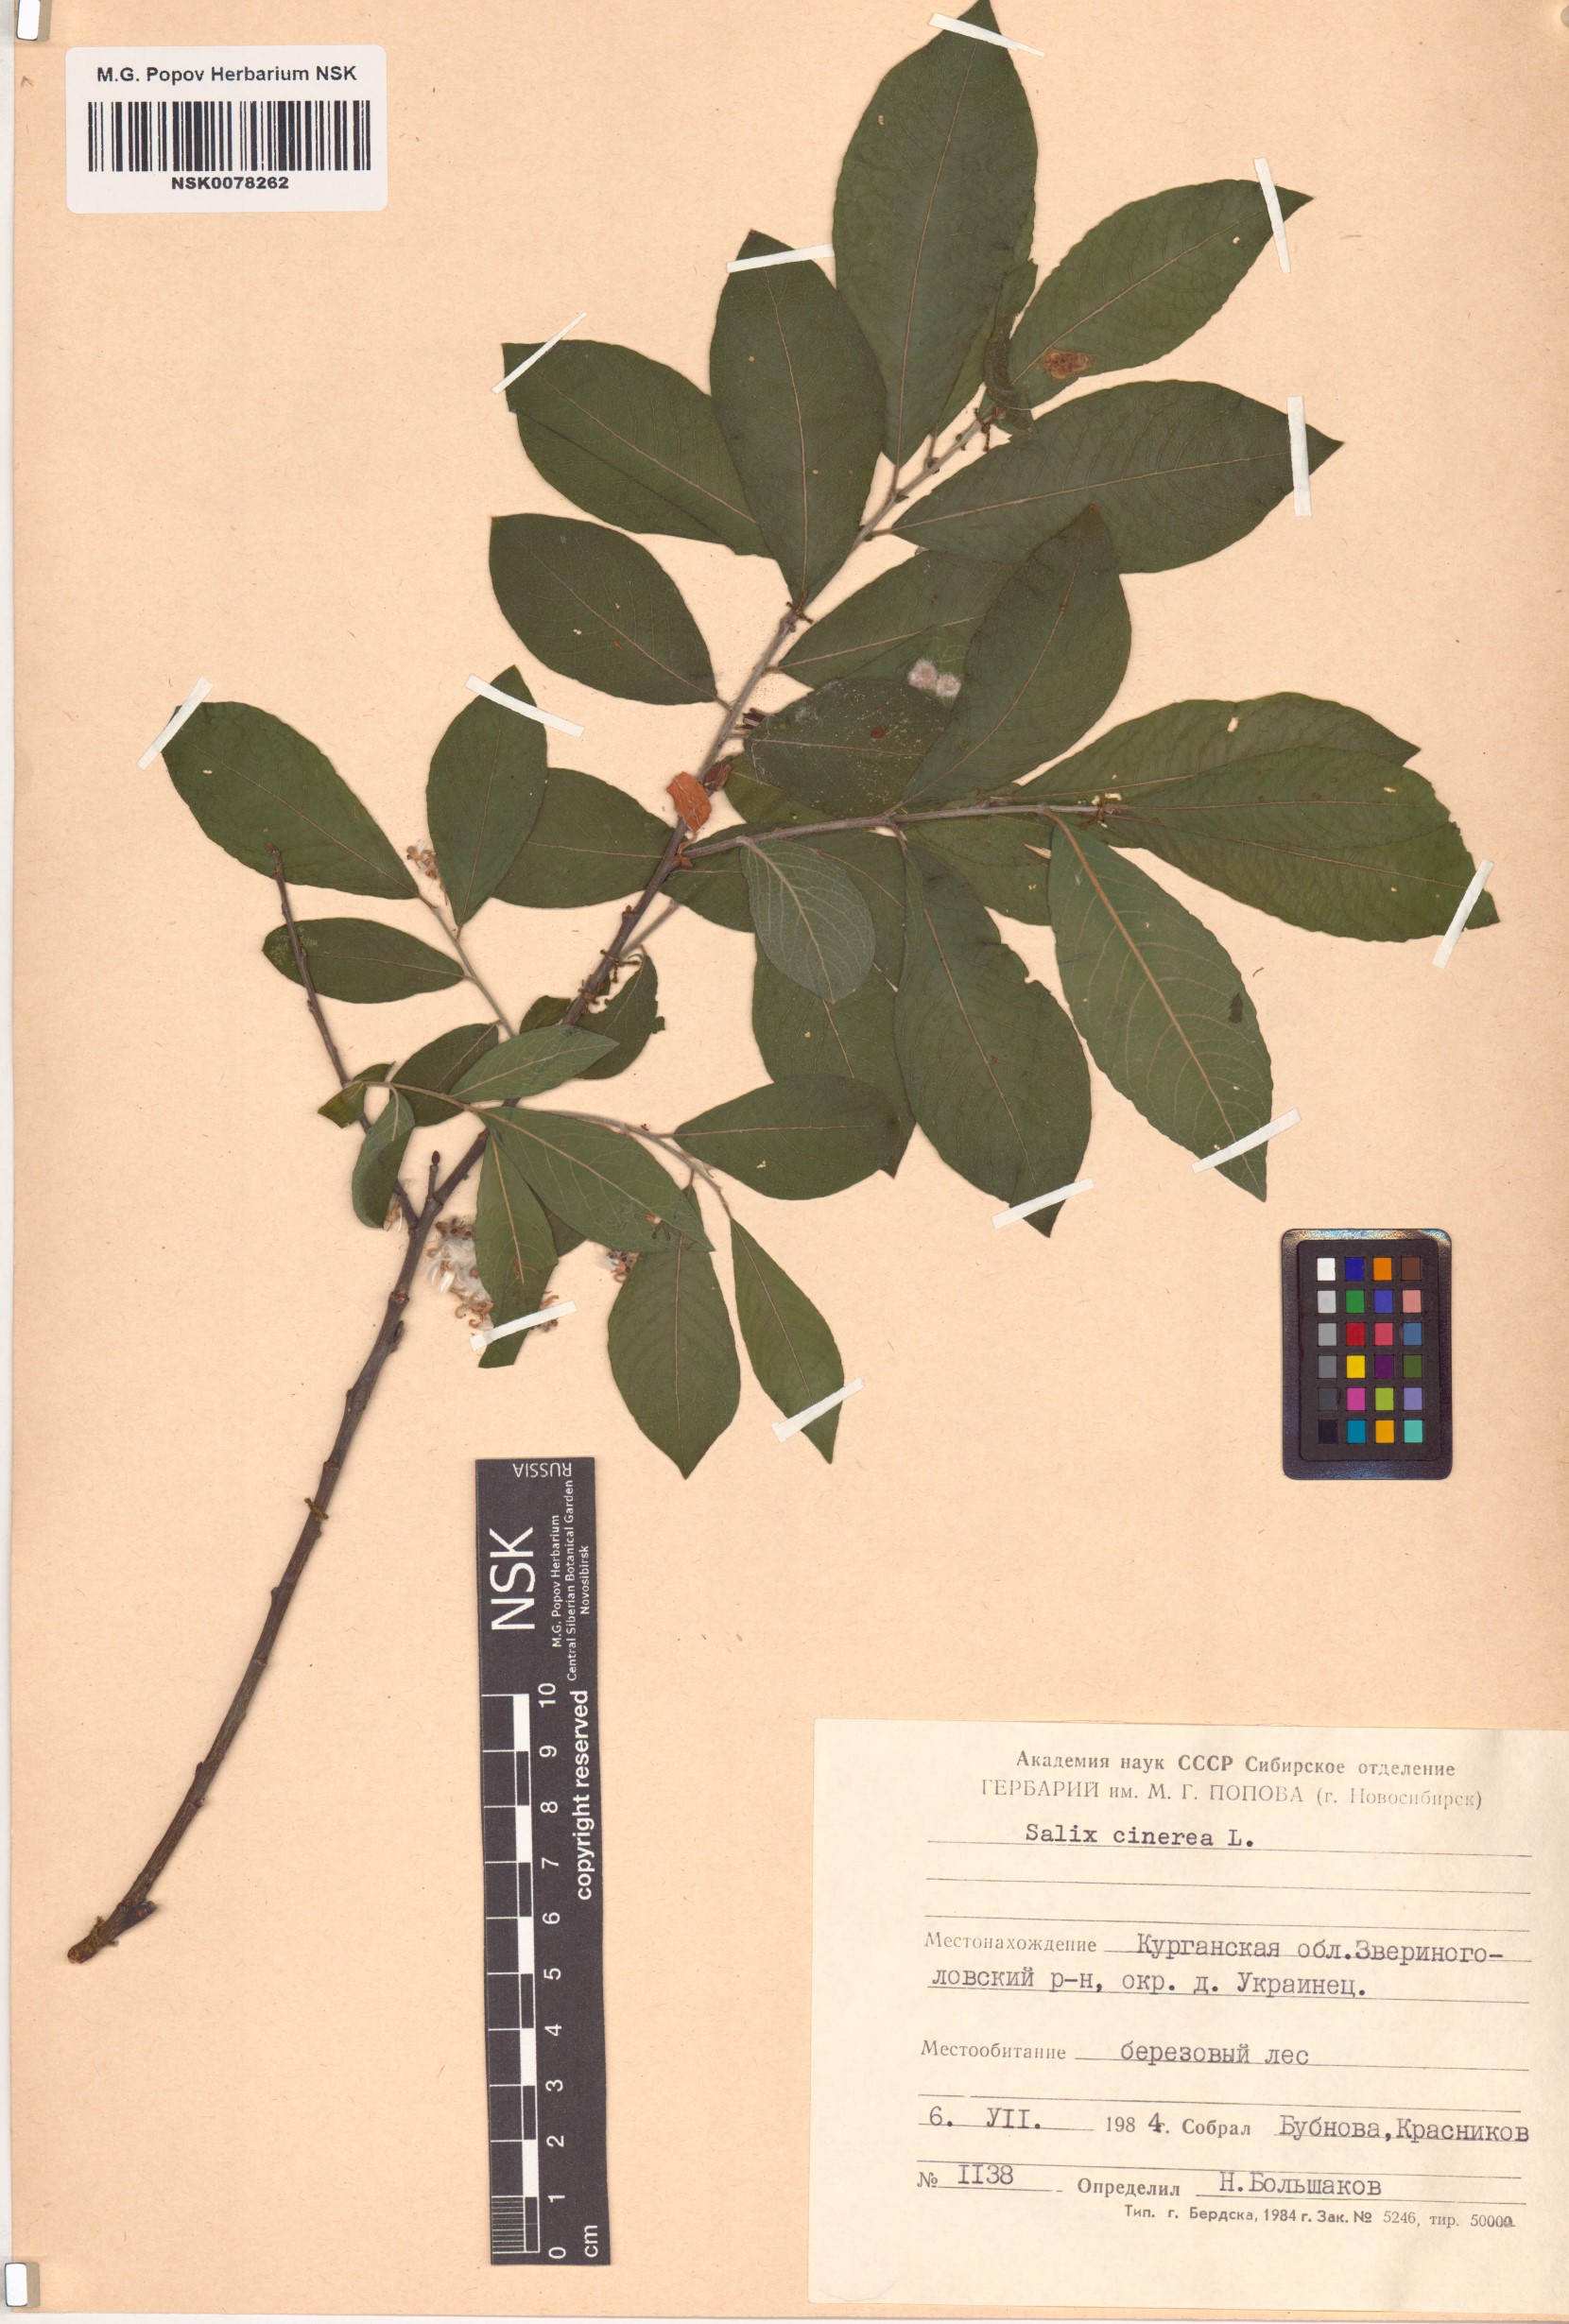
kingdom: Plantae
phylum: Tracheophyta
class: Magnoliopsida
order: Malpighiales
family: Salicaceae
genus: Salix
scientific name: Salix cinerea
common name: Common sallow
